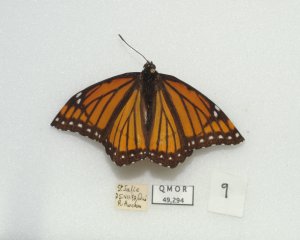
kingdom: Animalia
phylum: Arthropoda
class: Insecta
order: Lepidoptera
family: Nymphalidae
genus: Limenitis
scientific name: Limenitis archippus
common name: Viceroy
